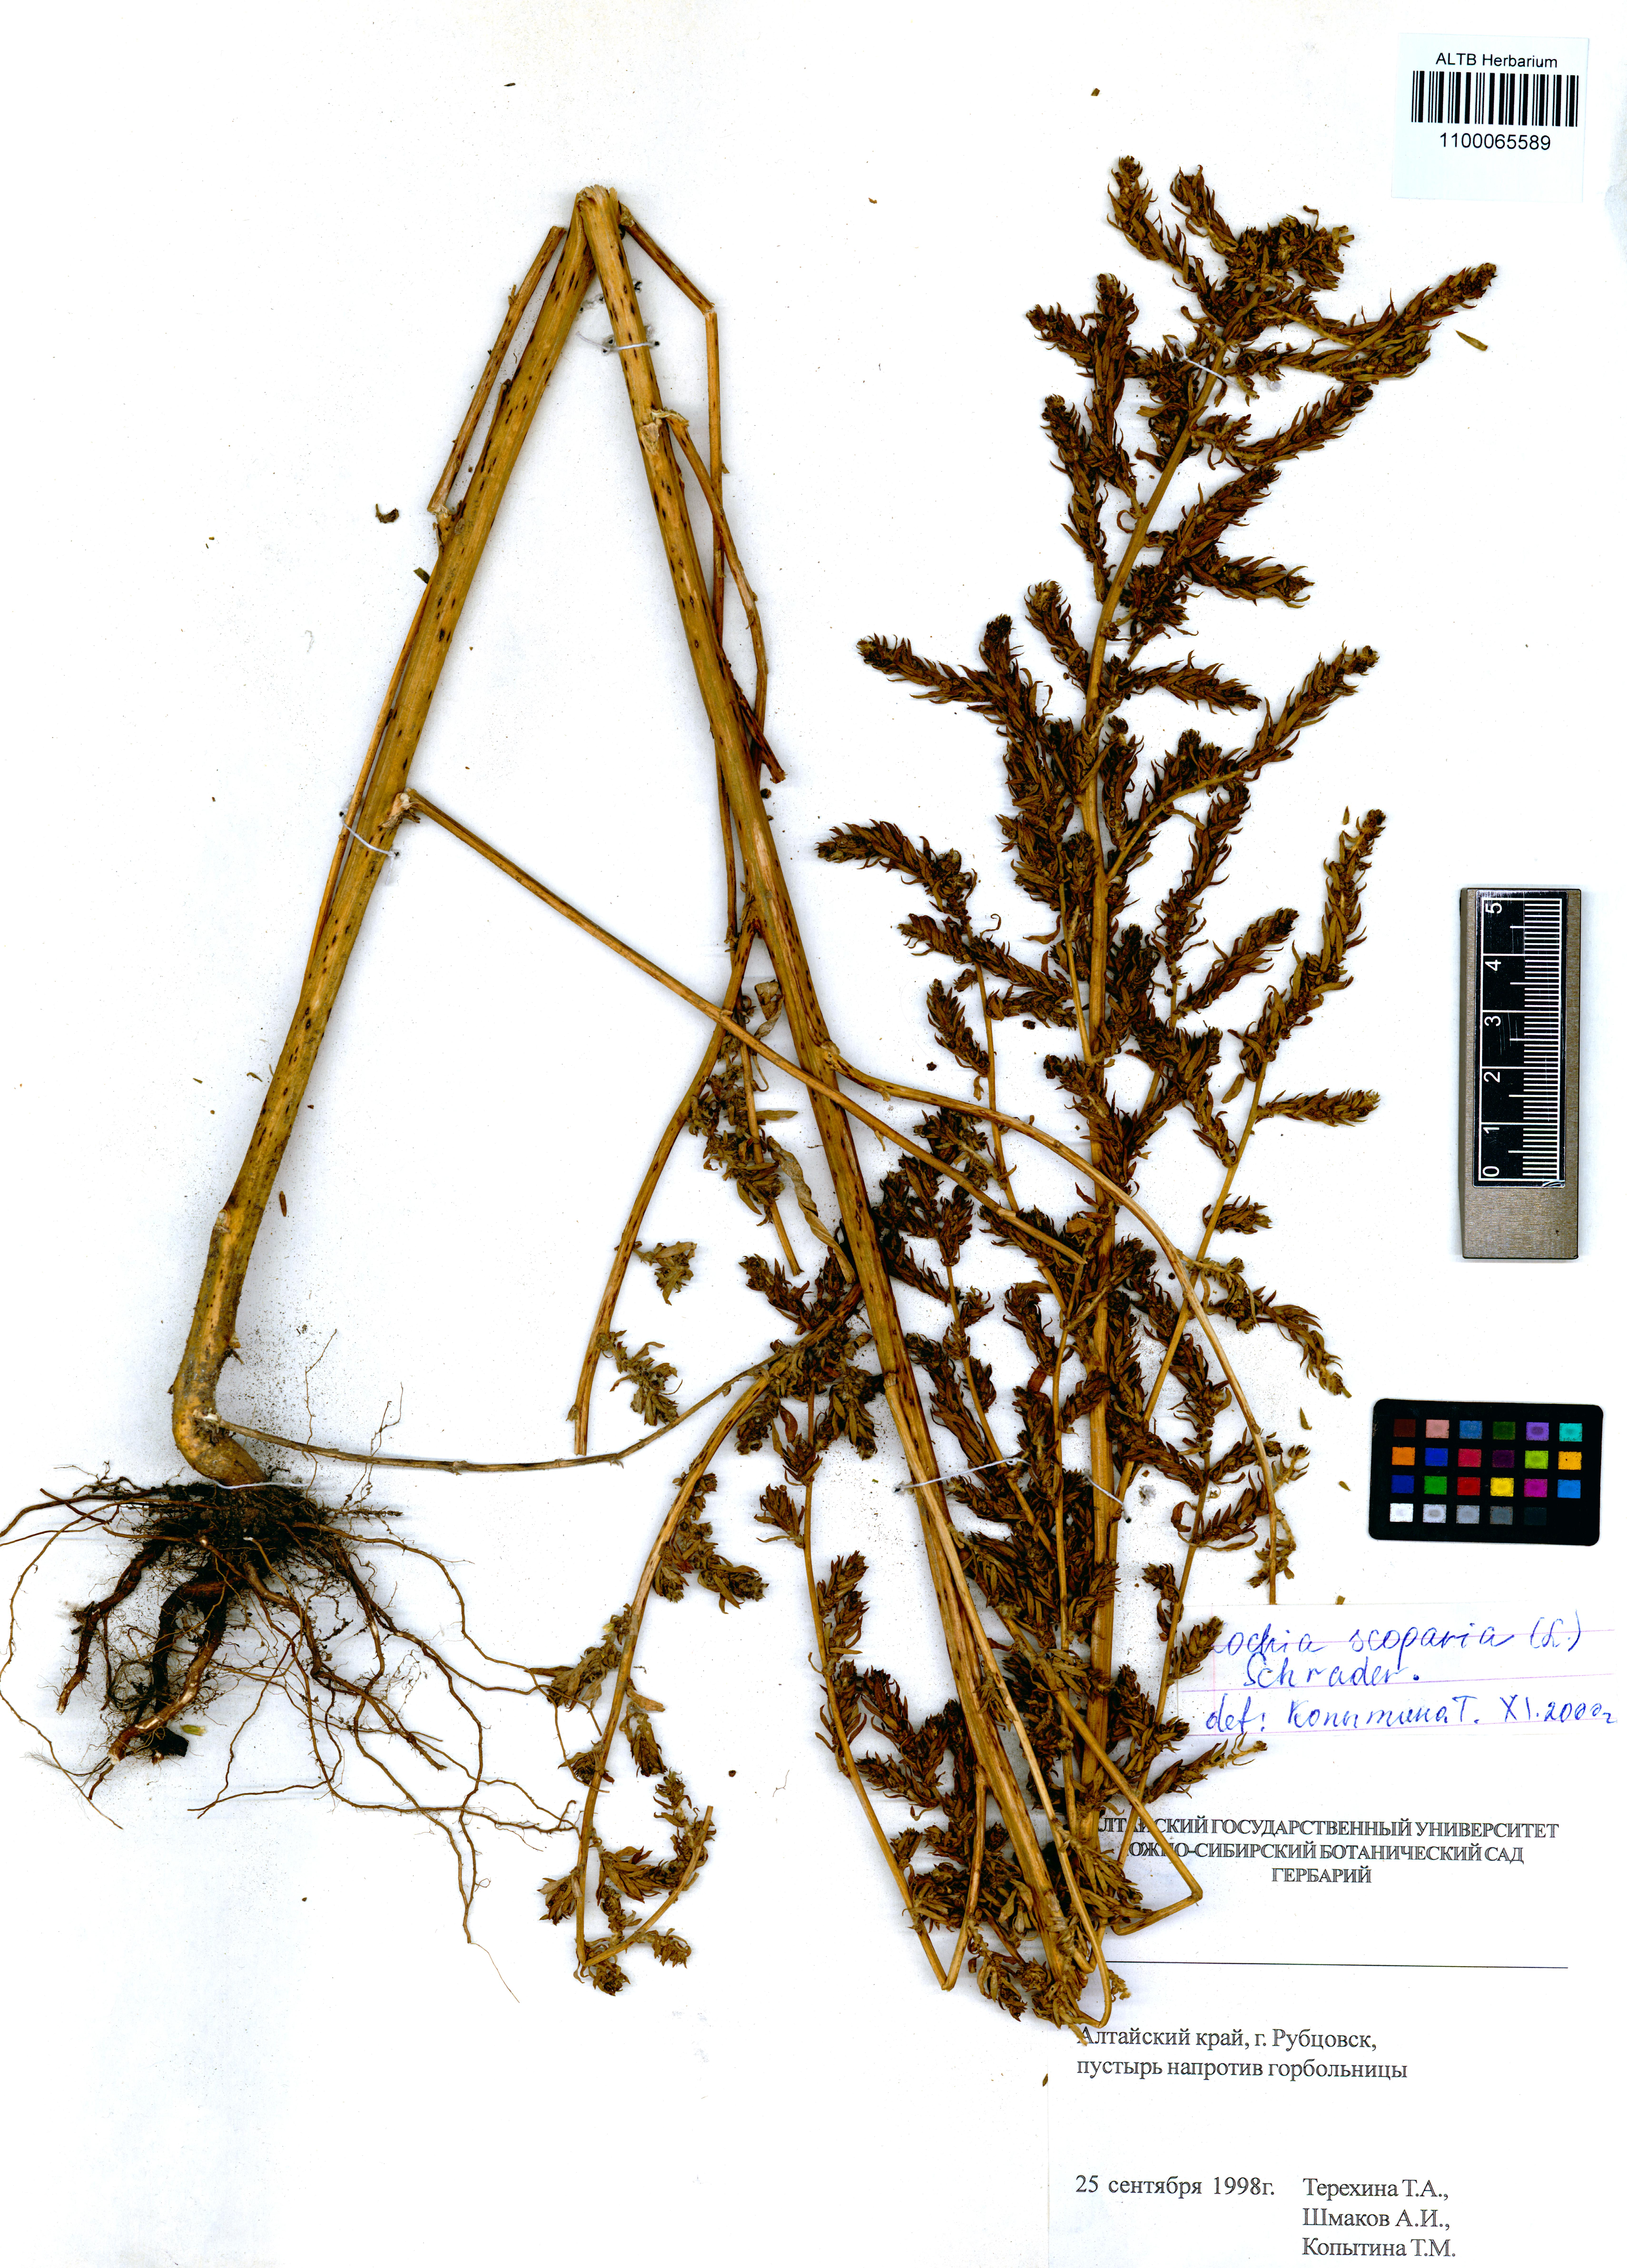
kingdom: Plantae
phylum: Tracheophyta
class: Magnoliopsida
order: Caryophyllales
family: Amaranthaceae
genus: Bassia
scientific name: Bassia scoparia
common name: Belvedere
